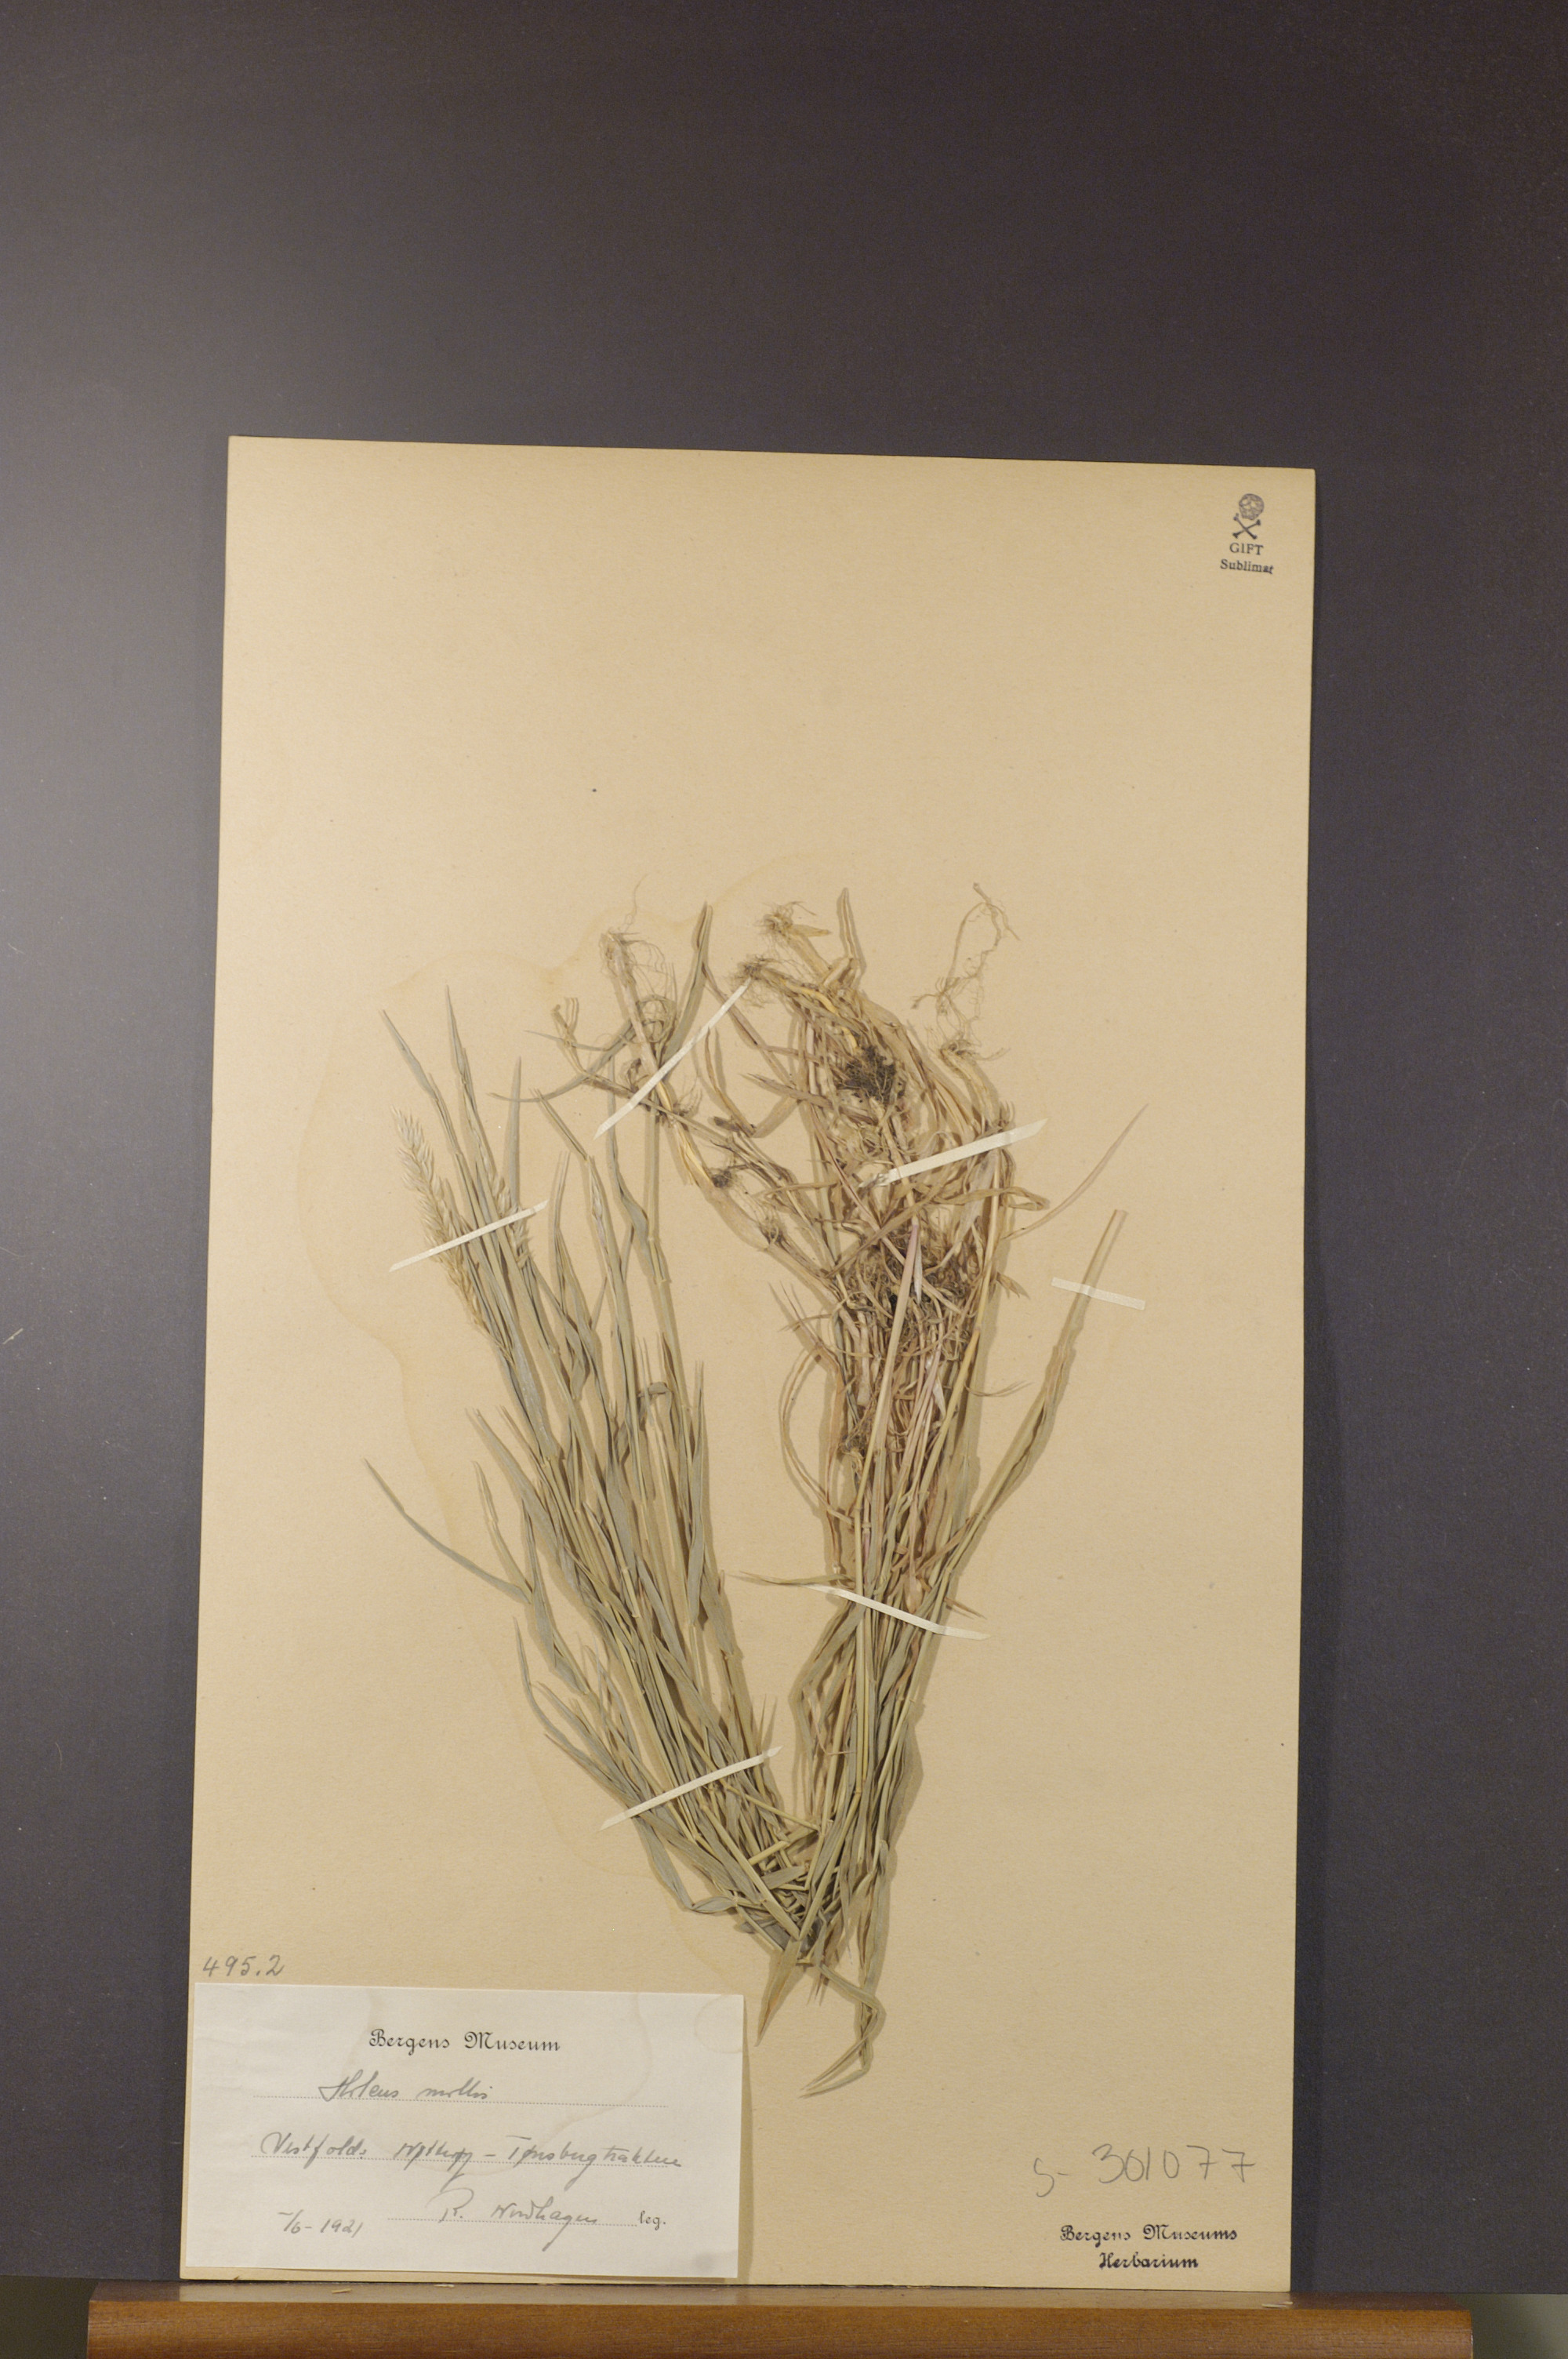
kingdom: Plantae
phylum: Tracheophyta
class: Liliopsida
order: Poales
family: Poaceae
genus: Holcus
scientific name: Holcus mollis
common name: Creeping velvetgrass
